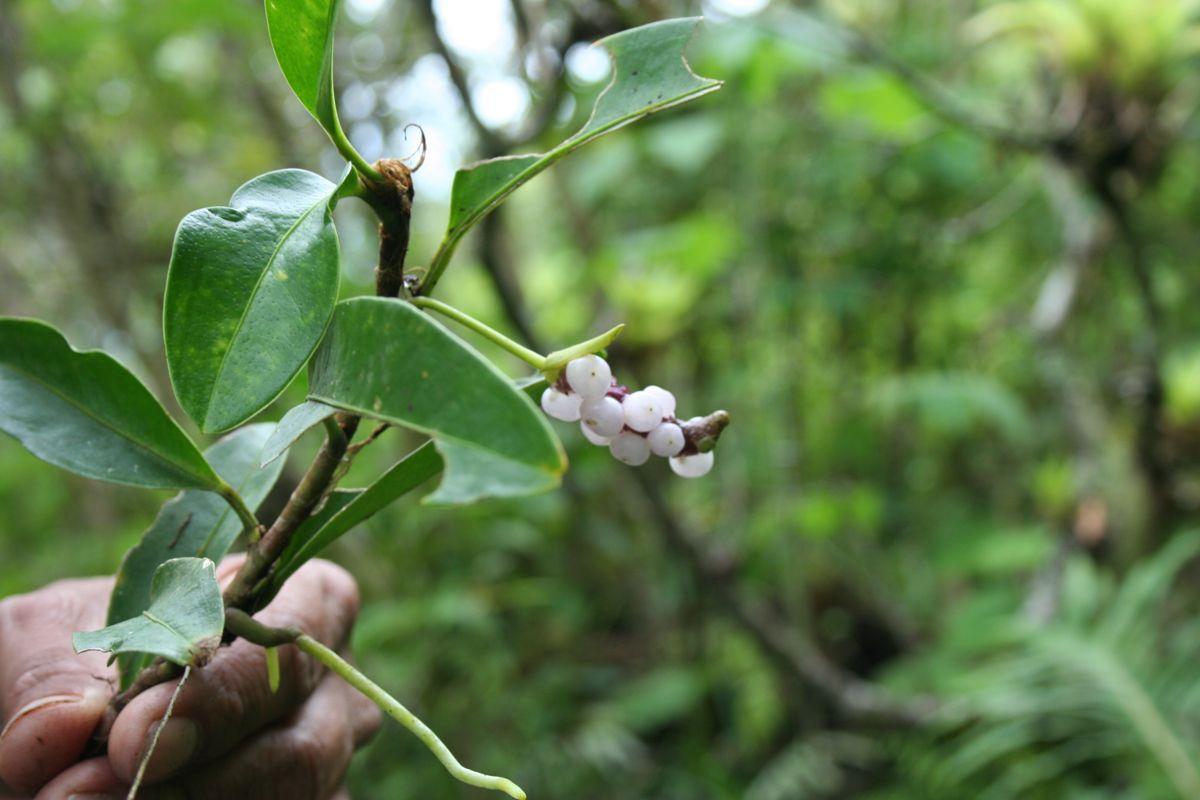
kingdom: Plantae
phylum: Tracheophyta
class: Liliopsida
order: Alismatales
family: Araceae
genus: Anthurium
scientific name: Anthurium scandens
